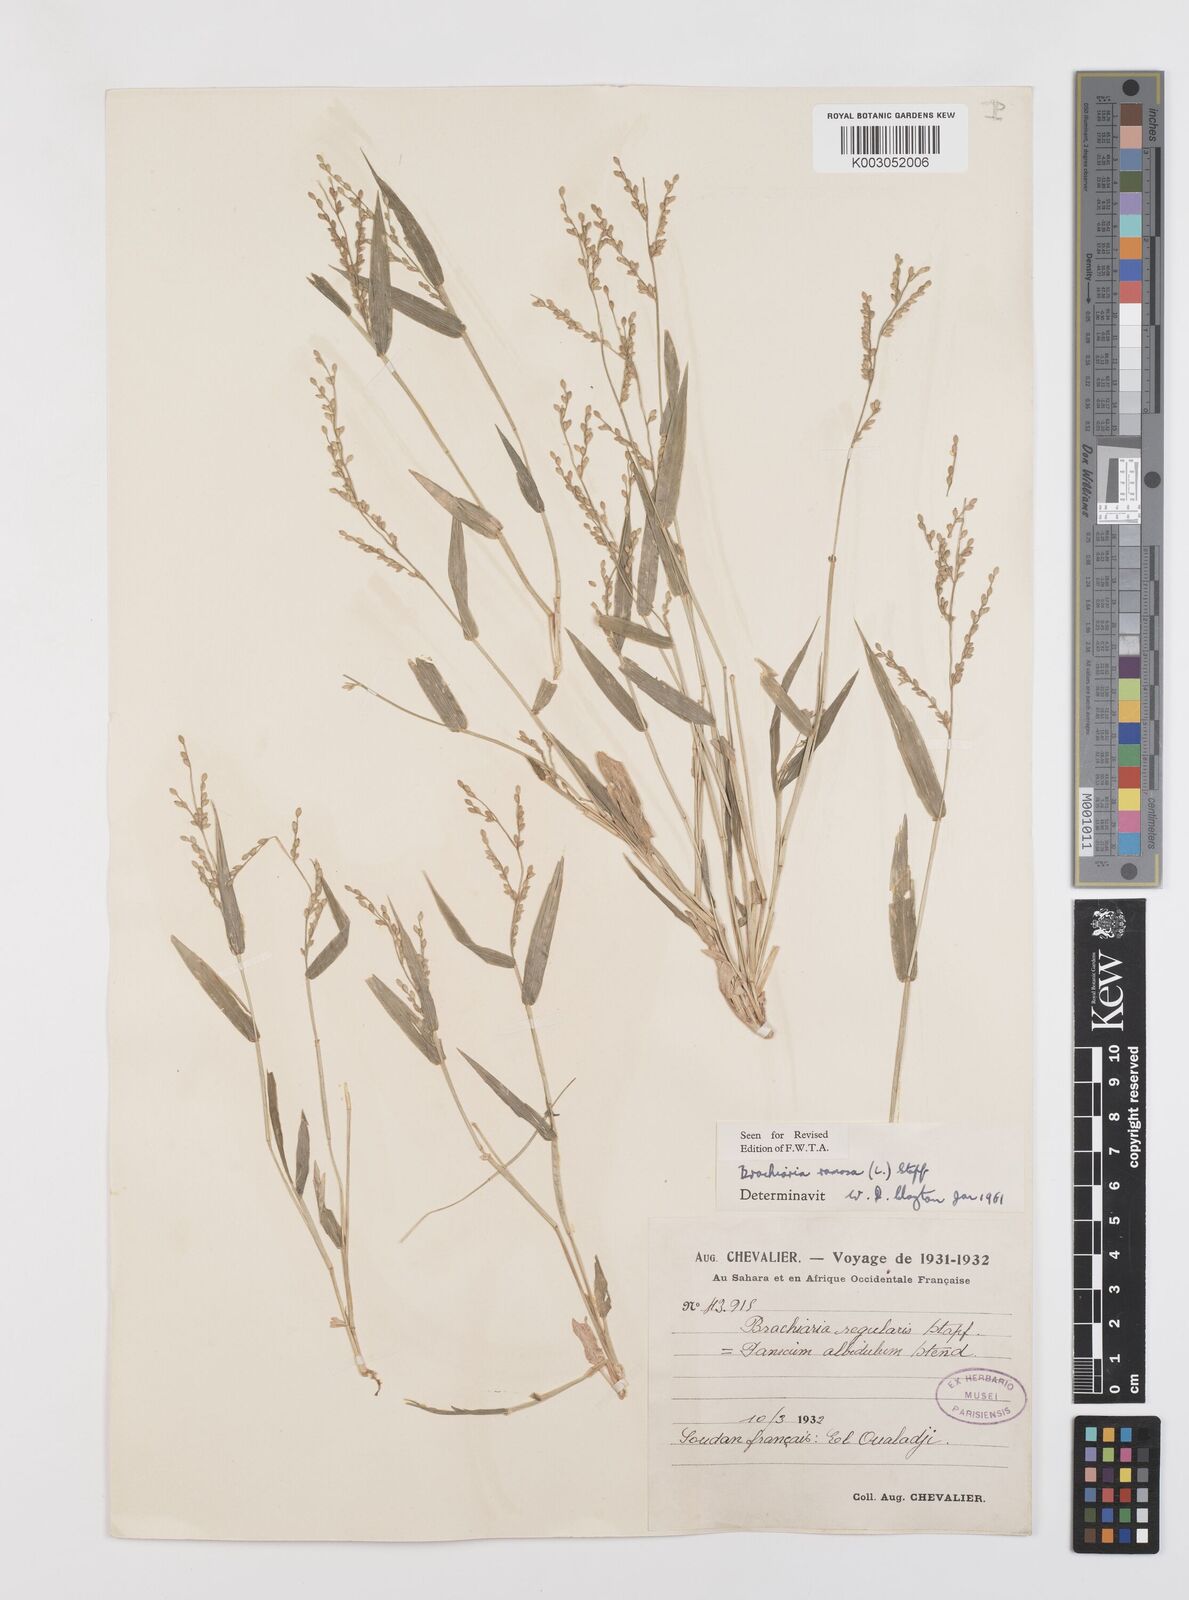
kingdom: Plantae
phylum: Tracheophyta
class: Liliopsida
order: Poales
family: Poaceae
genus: Urochloa
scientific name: Urochloa ramosa
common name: Browntop millet
